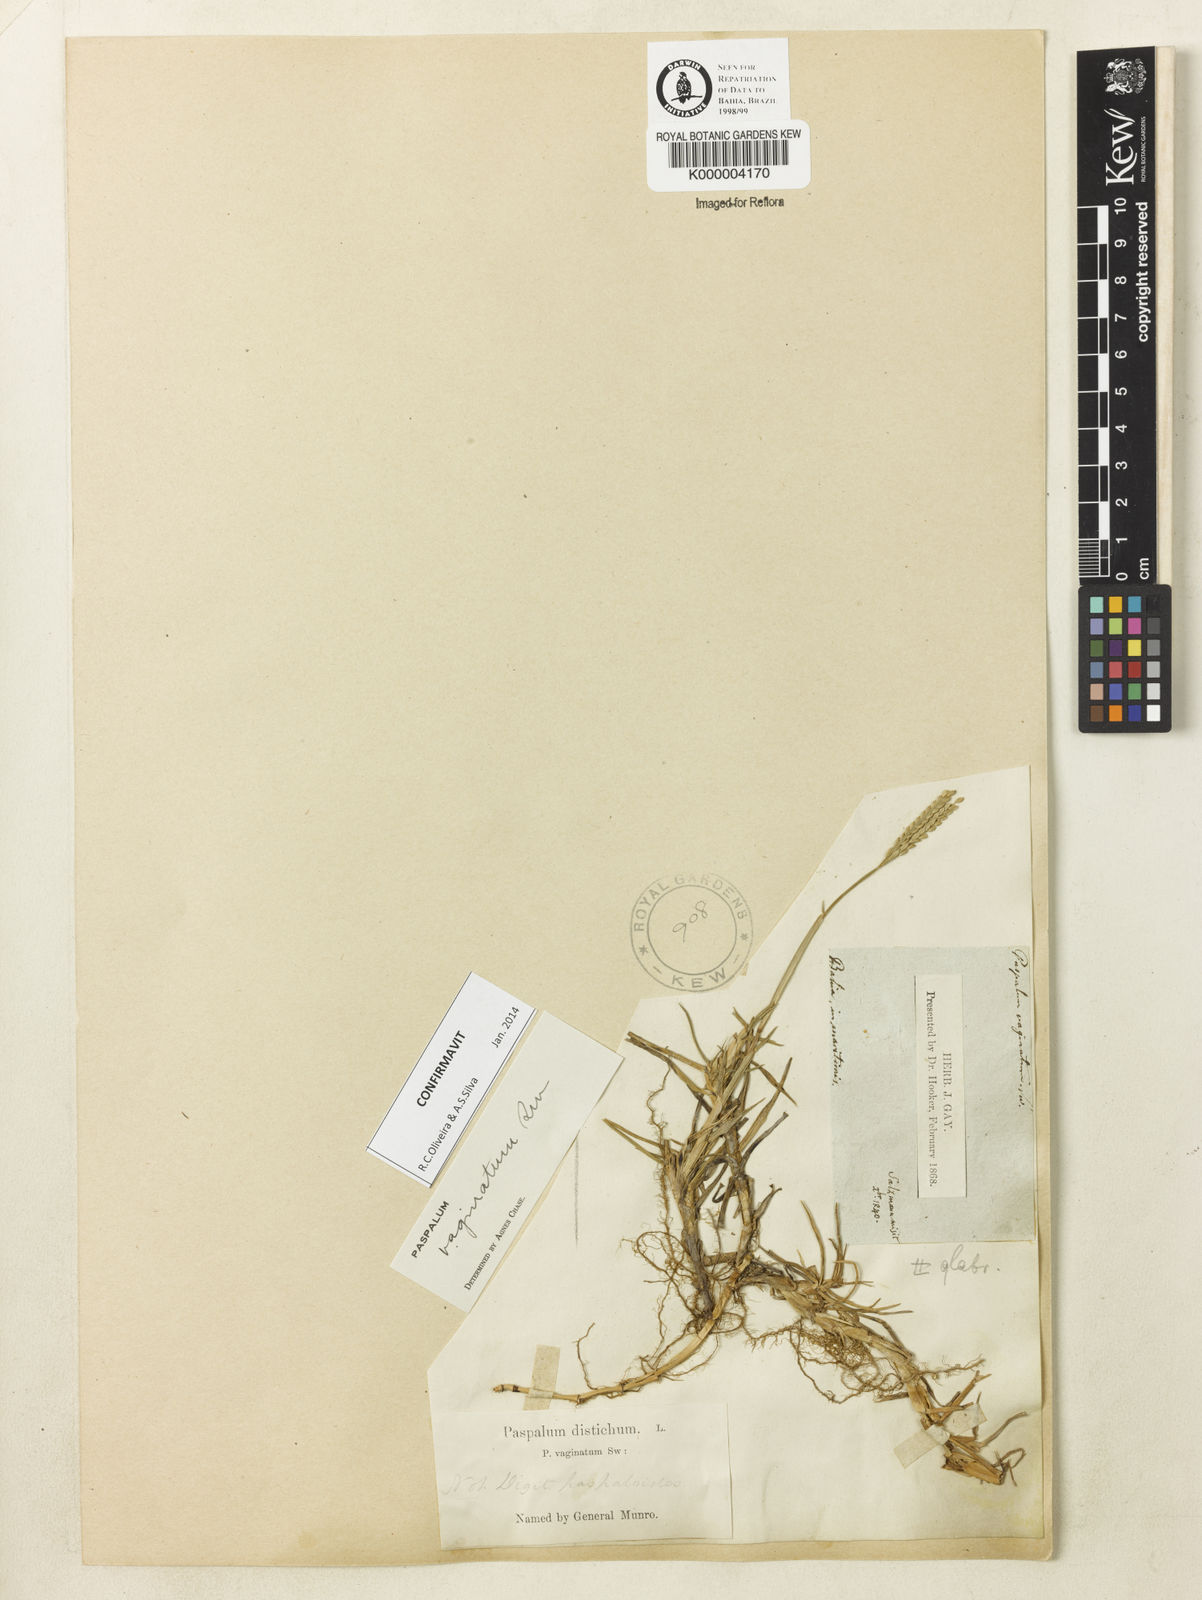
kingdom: Plantae
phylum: Tracheophyta
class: Liliopsida
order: Poales
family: Poaceae
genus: Paspalum
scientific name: Paspalum vaginatum
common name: Seashore paspalum
